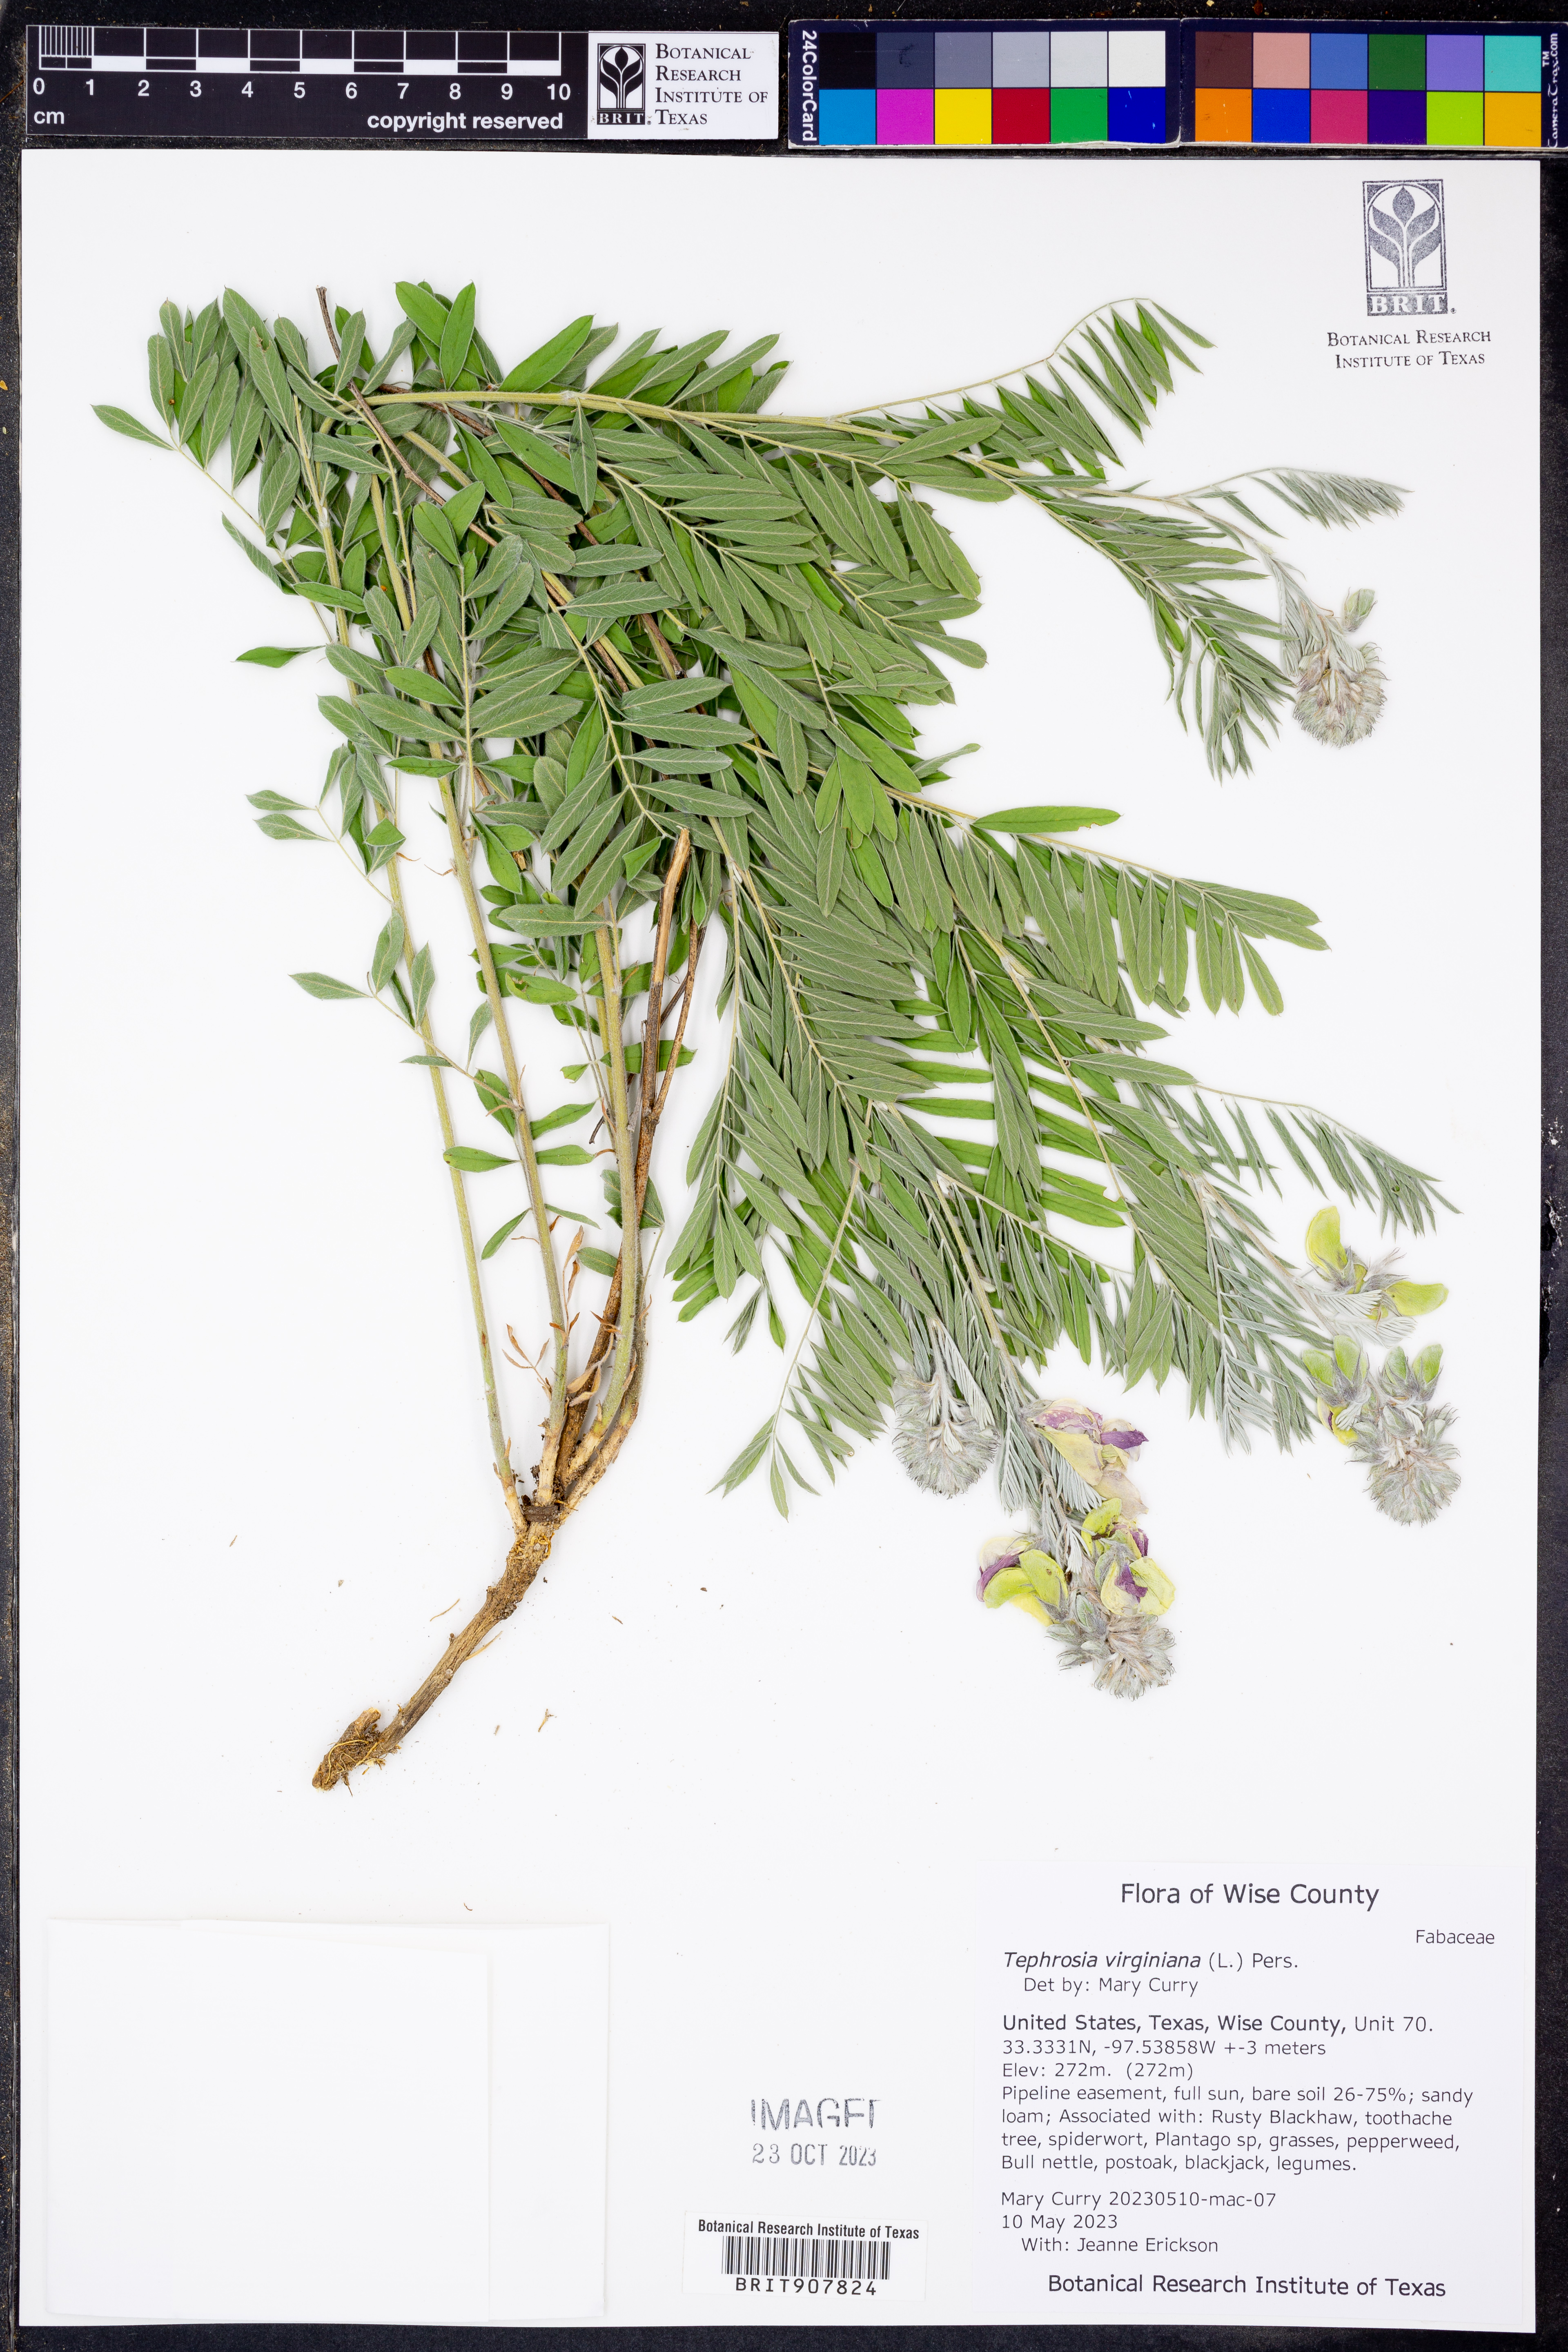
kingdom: Plantae
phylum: Tracheophyta
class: Magnoliopsida
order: Fabales
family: Fabaceae
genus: Tephrosia
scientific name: Tephrosia virginiana
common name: Rabbit-pea
